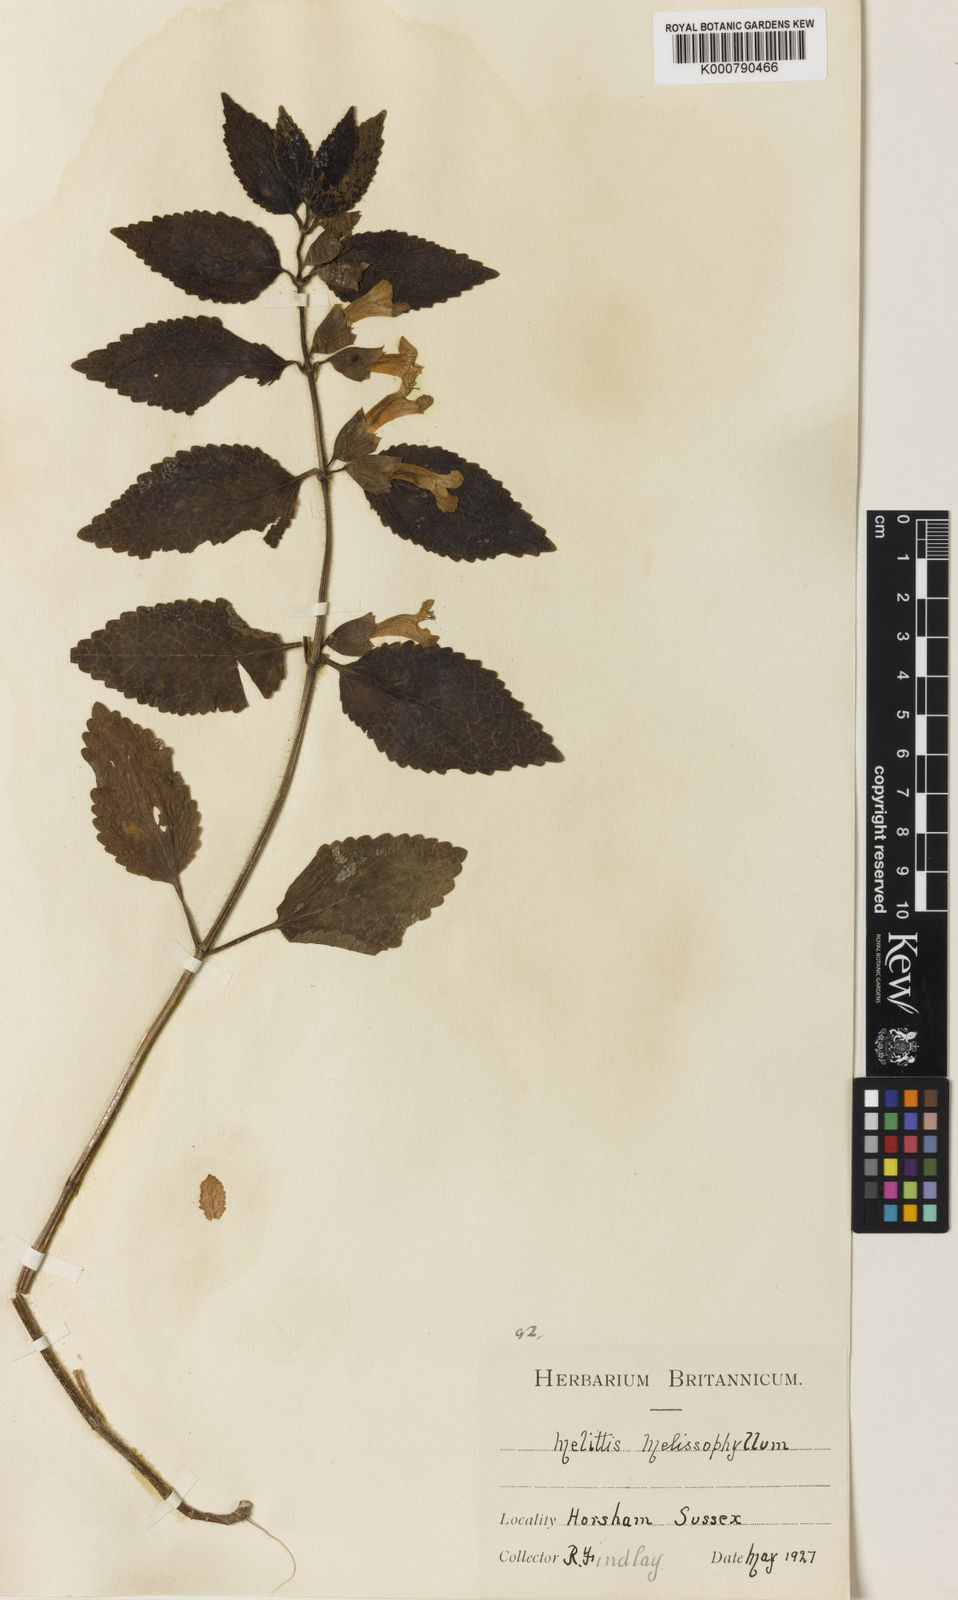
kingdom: Plantae
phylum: Tracheophyta
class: Magnoliopsida
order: Lamiales
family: Lamiaceae
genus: Melittis
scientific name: Melittis melissophyllum
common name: Bastard balm
